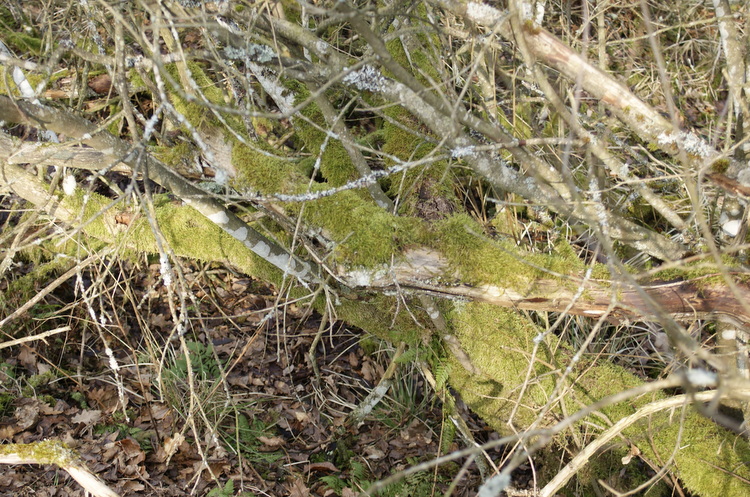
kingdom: Fungi
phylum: Basidiomycota
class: Agaricomycetes
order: Gloeophyllales
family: Gloeophyllaceae
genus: Gloeophyllum
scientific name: Gloeophyllum sepiarium
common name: fyrre-korkhat
